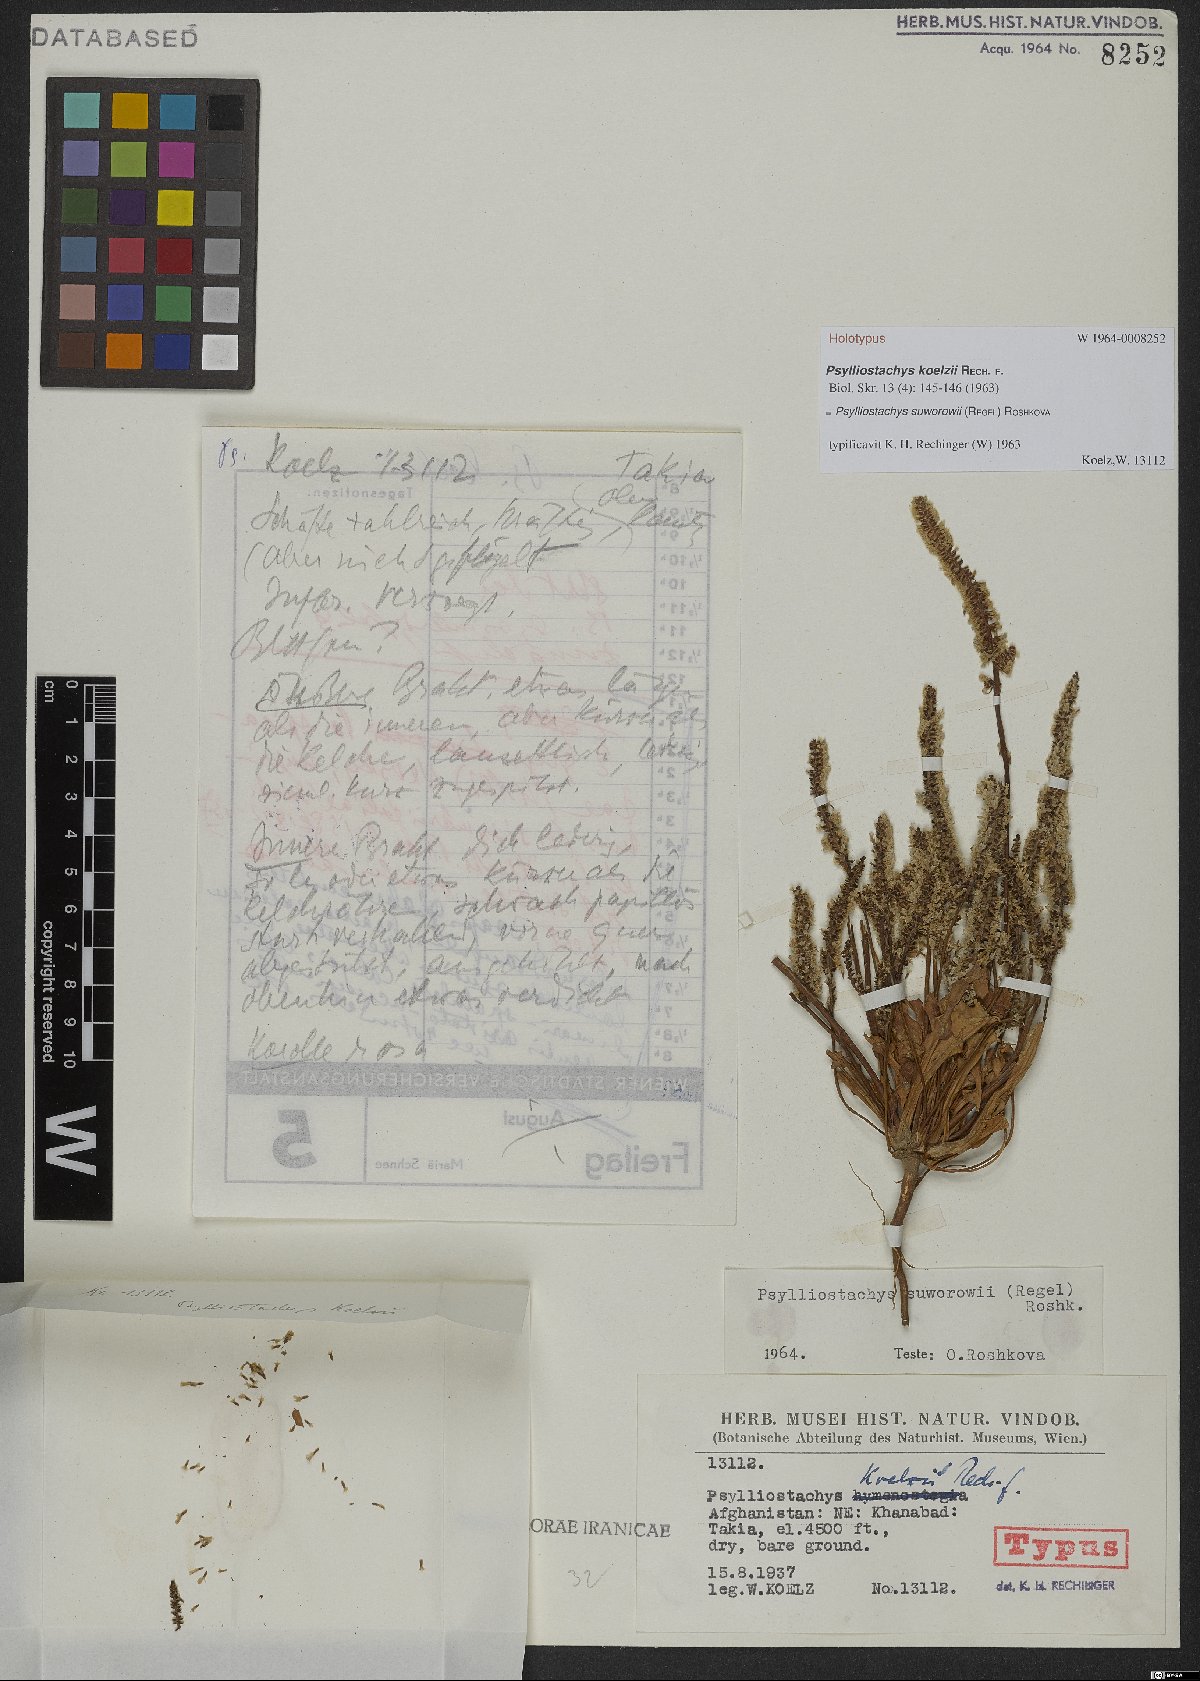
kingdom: Plantae
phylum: Tracheophyta
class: Magnoliopsida
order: Caryophyllales
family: Plumbaginaceae
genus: Psylliostachys
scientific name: Psylliostachys suworowii
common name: Rat-tail statice
